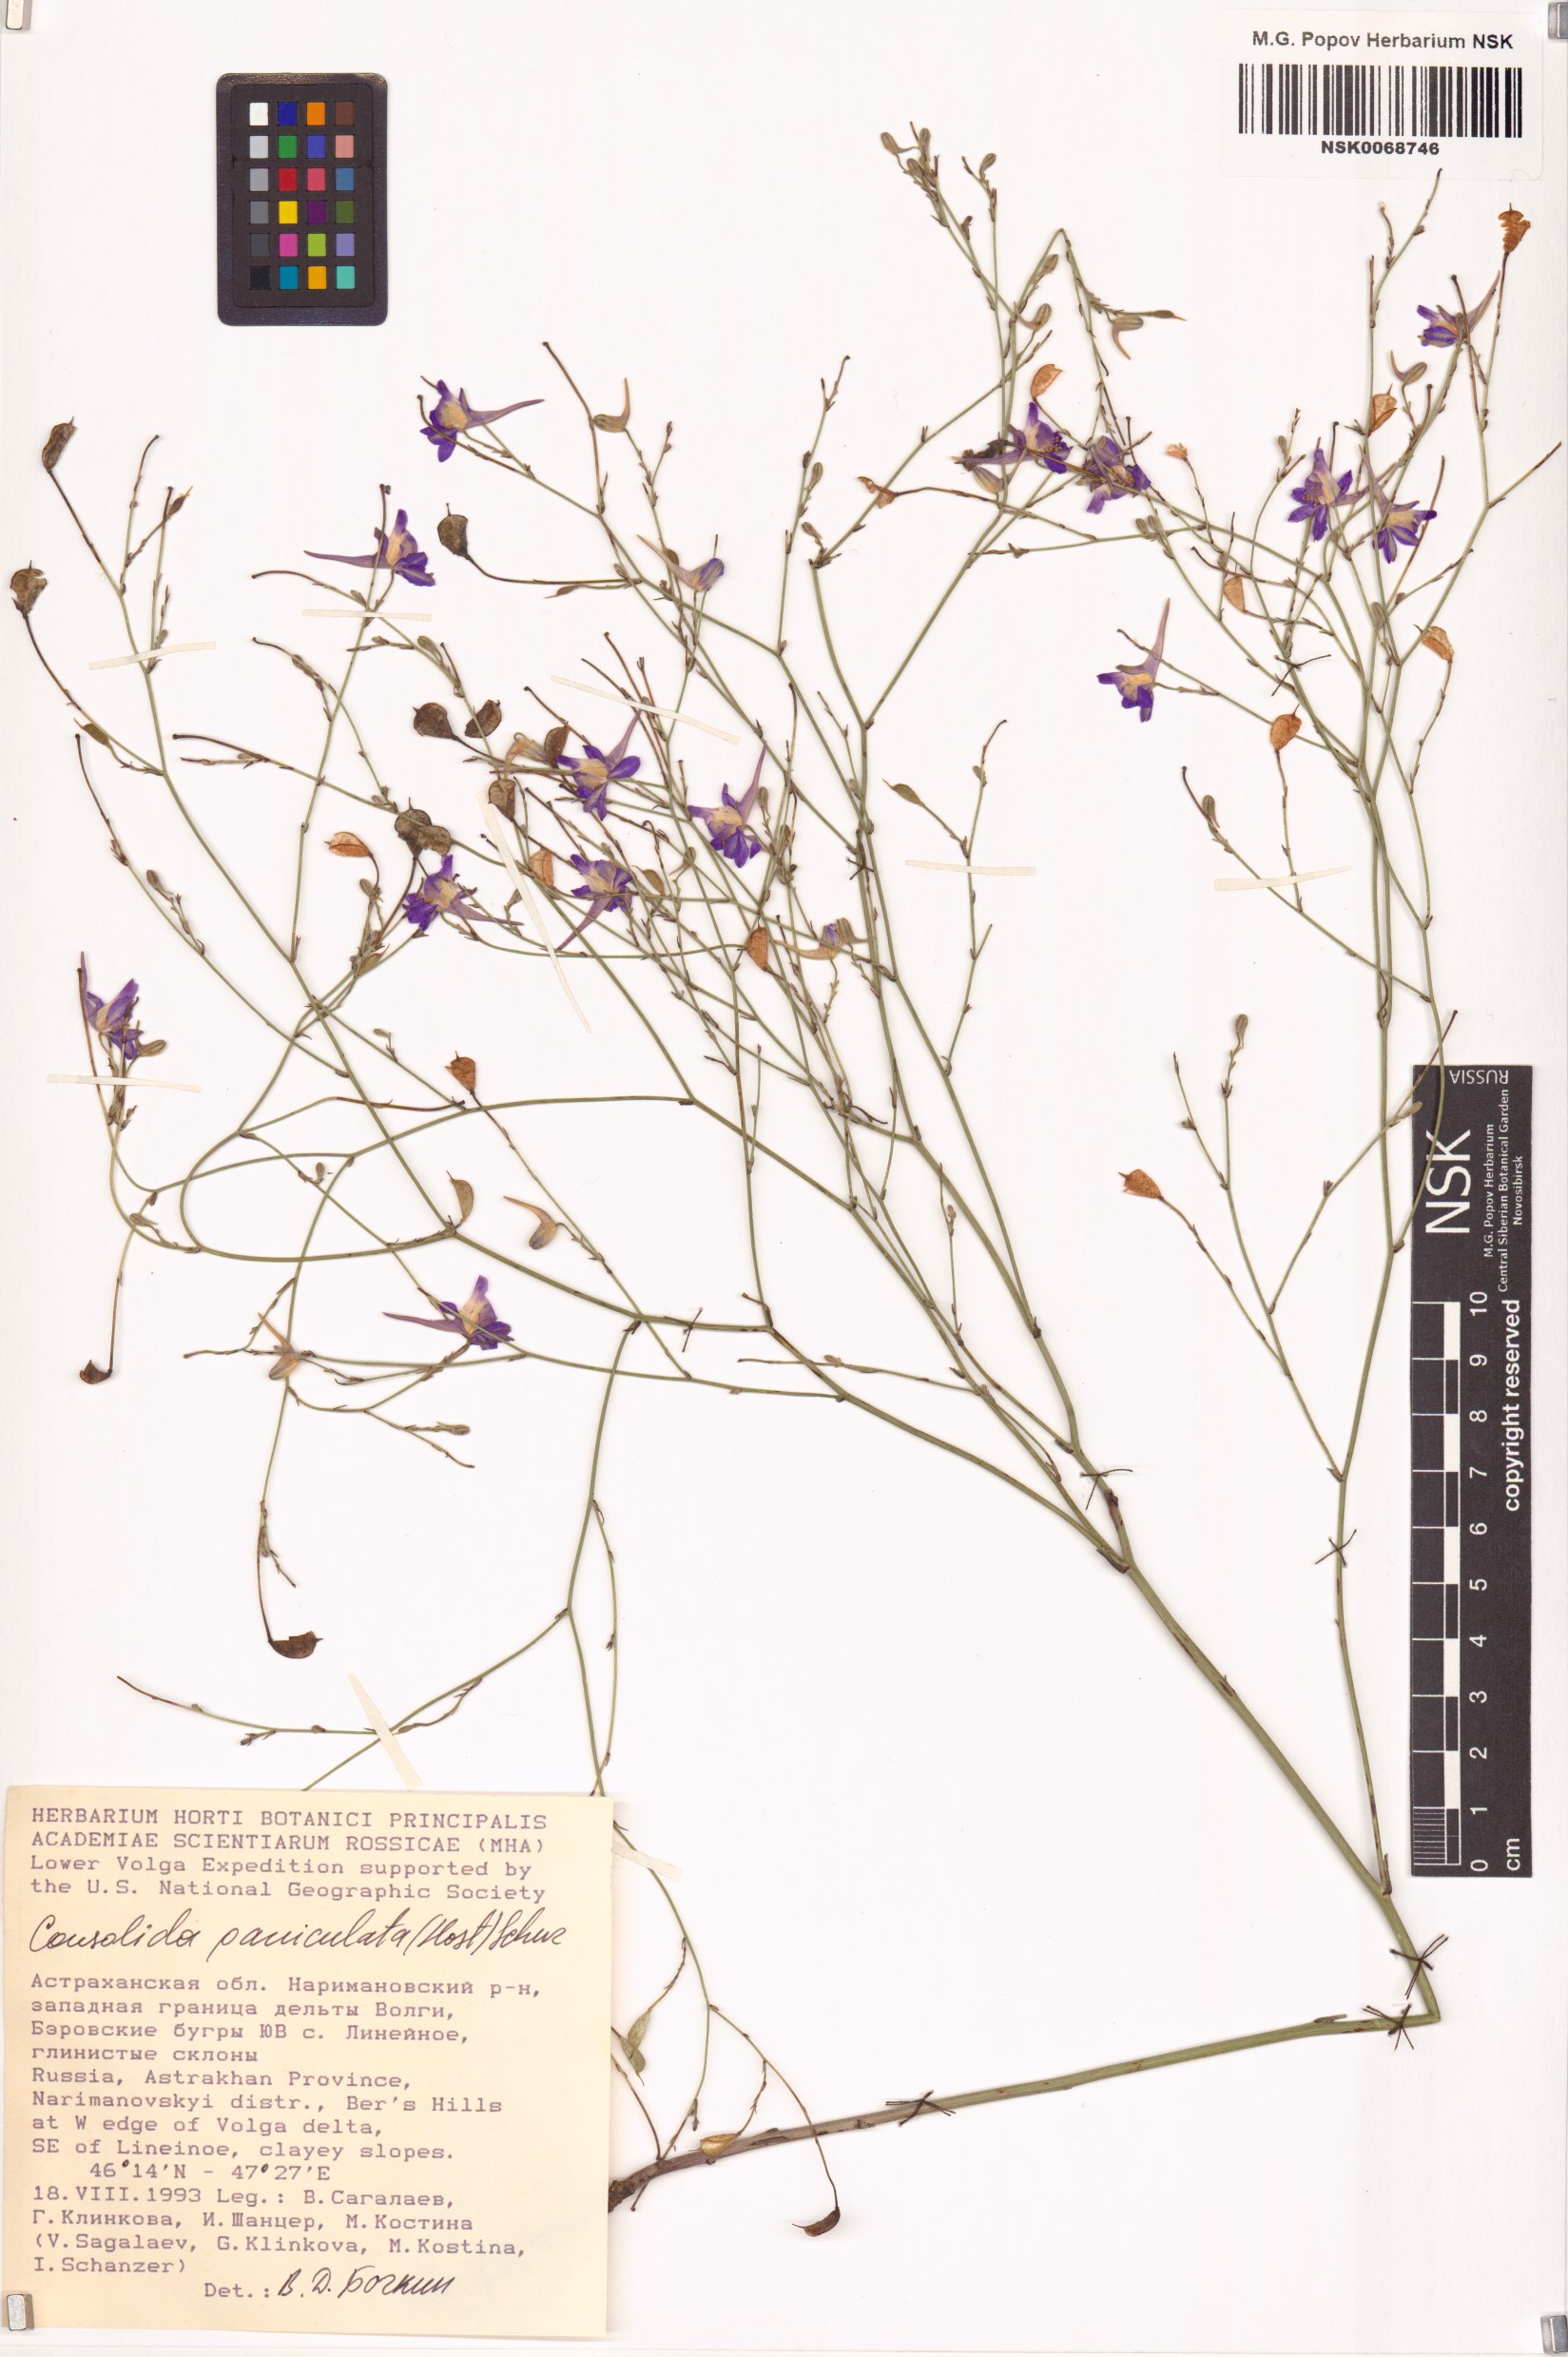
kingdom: Plantae
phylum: Tracheophyta
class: Magnoliopsida
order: Ranunculales
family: Ranunculaceae
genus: Delphinium
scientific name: Delphinium consolida
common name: Branching larkspur
